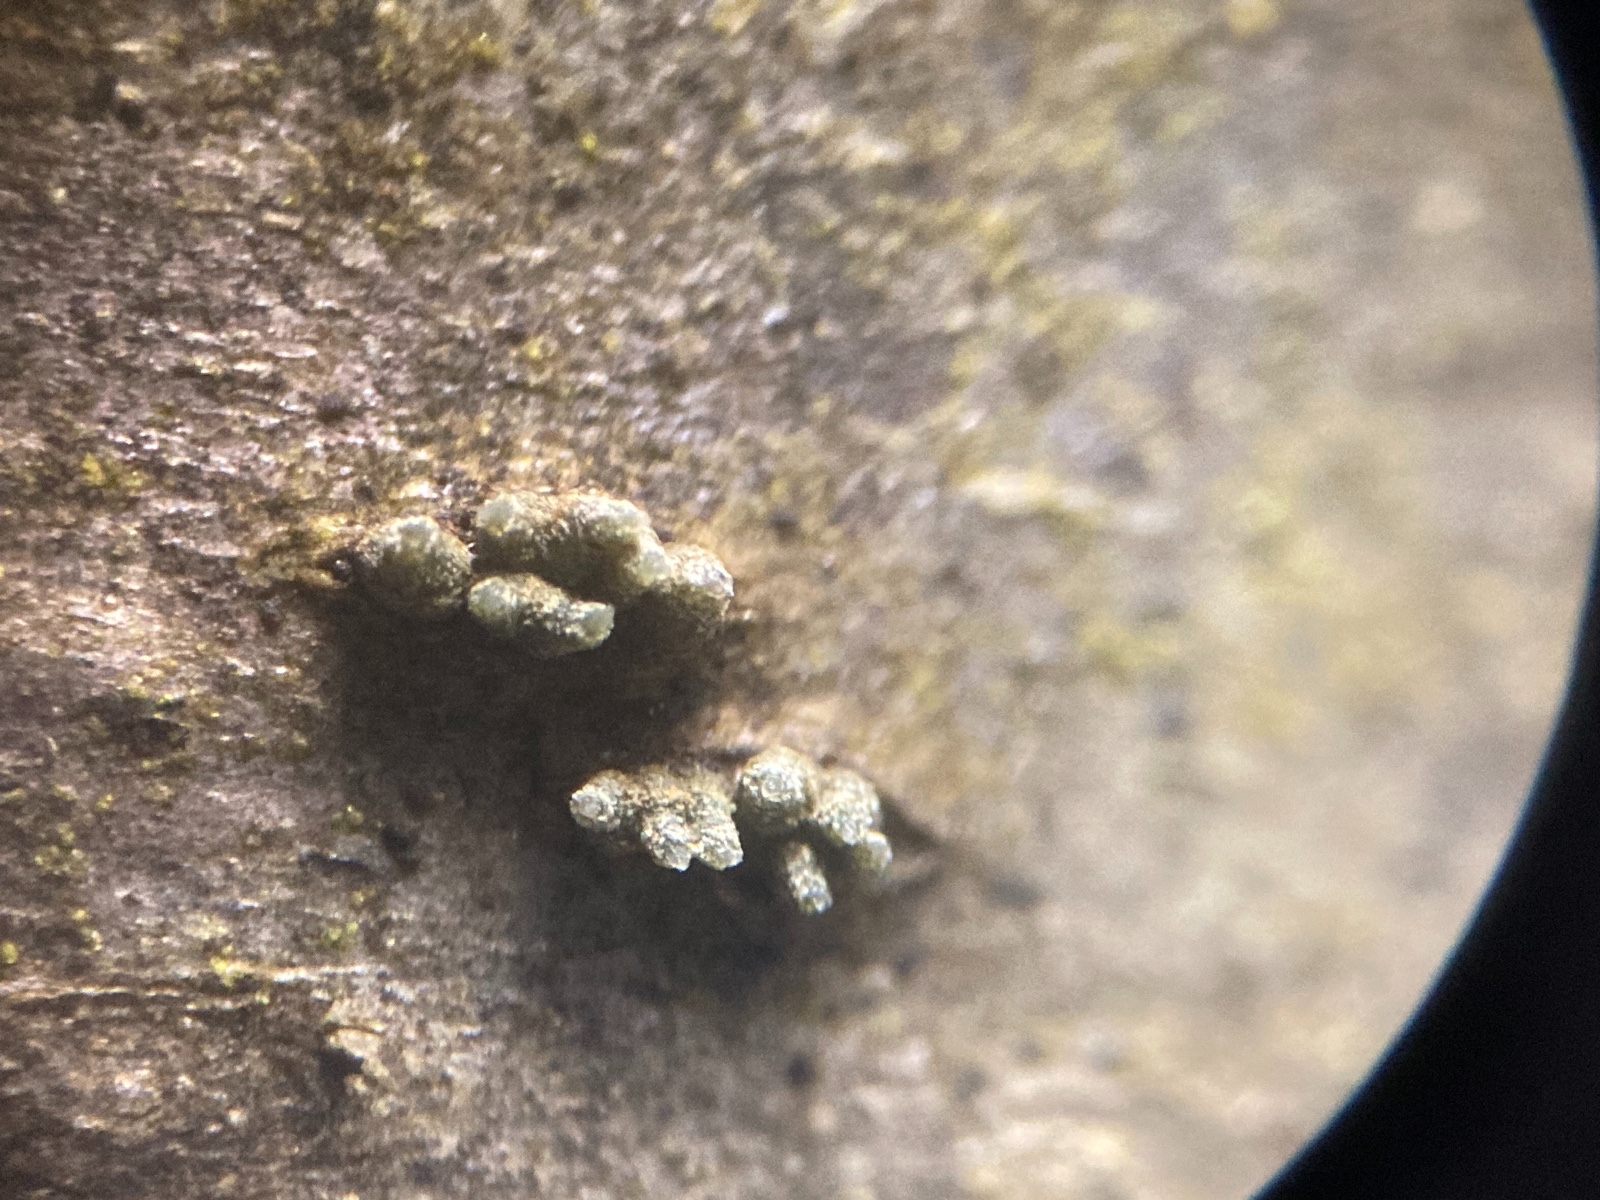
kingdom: Fungi
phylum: Ascomycota
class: Leotiomycetes
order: Helotiales
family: Dermateaceae
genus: Dermea
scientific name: Dermea cerasi
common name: kirsebær-klyngeskive
